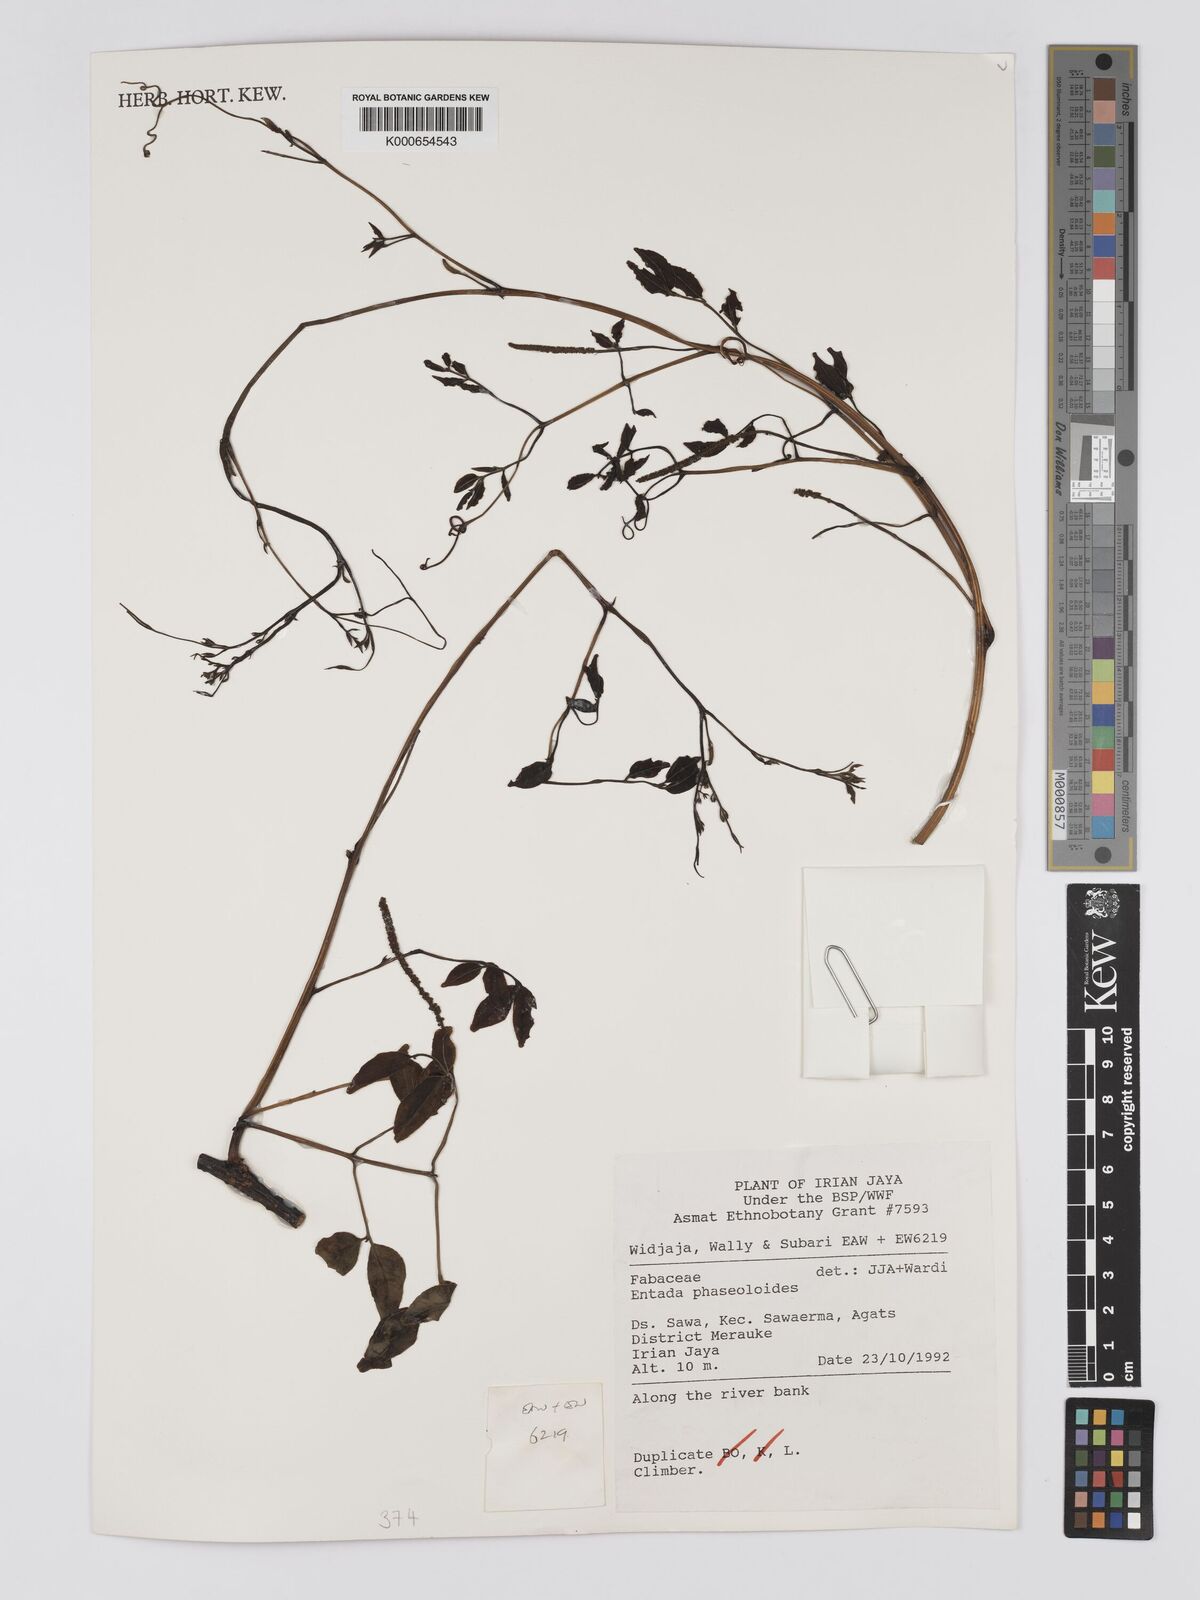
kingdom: Plantae
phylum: Tracheophyta
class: Magnoliopsida
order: Fabales
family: Fabaceae
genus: Entada
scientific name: Entada phaseoloides
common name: Matchbox-bean
